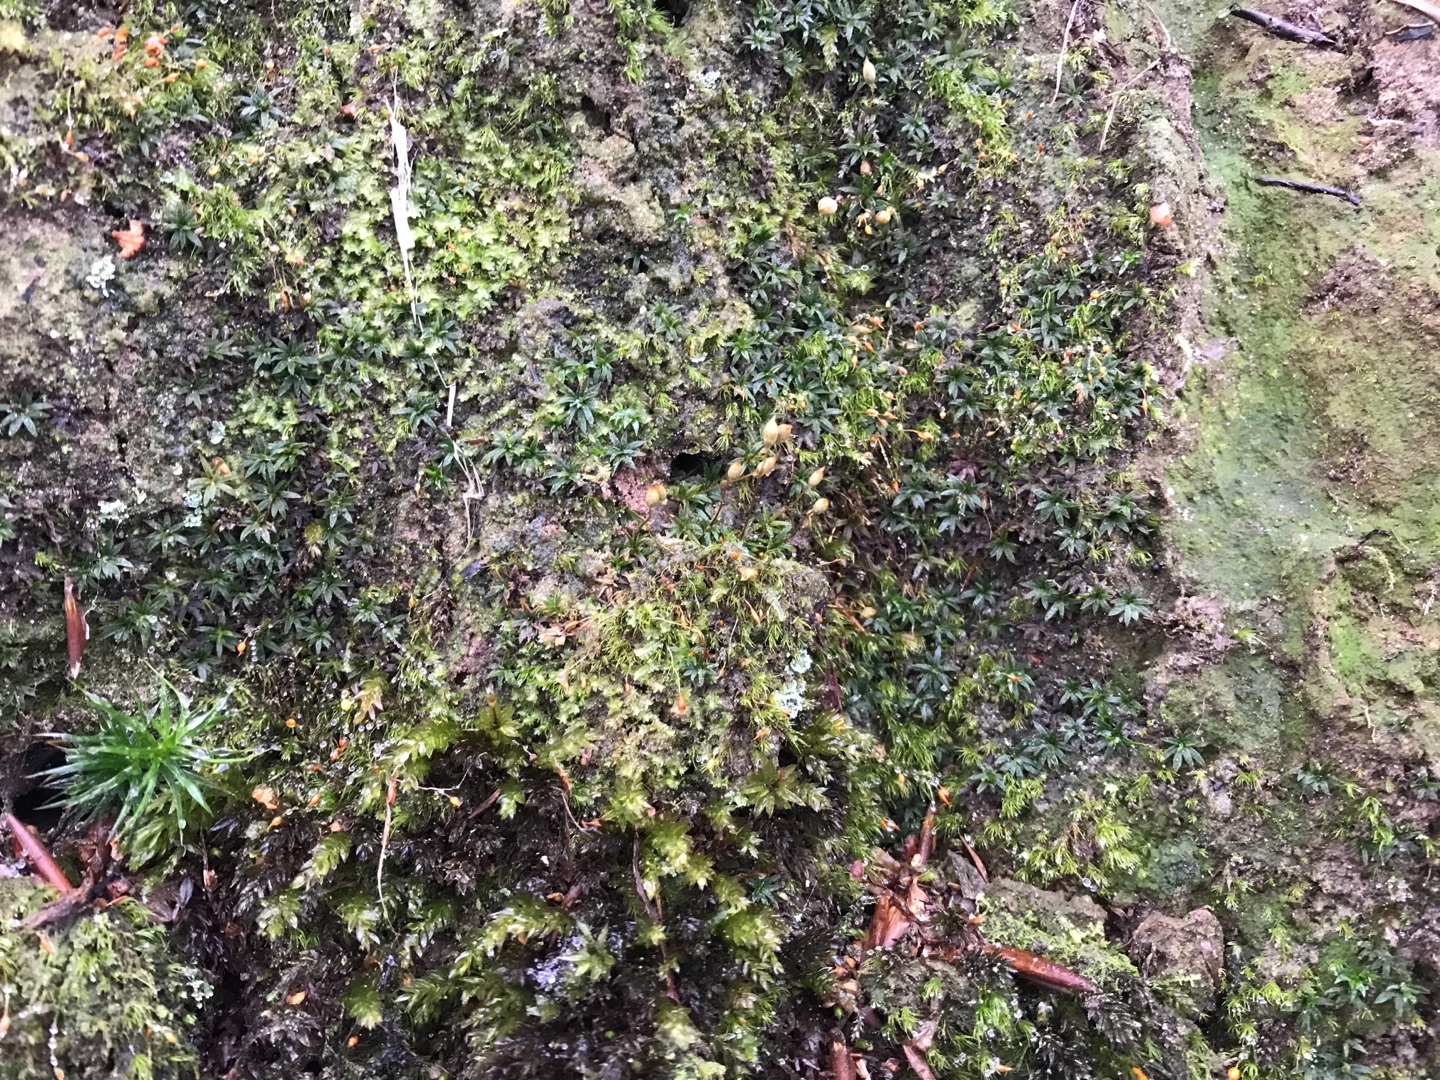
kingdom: Plantae
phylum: Bryophyta
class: Polytrichopsida
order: Polytrichales
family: Polytrichaceae
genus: Pogonatum
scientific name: Pogonatum aloides
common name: Smal urnekapsel
